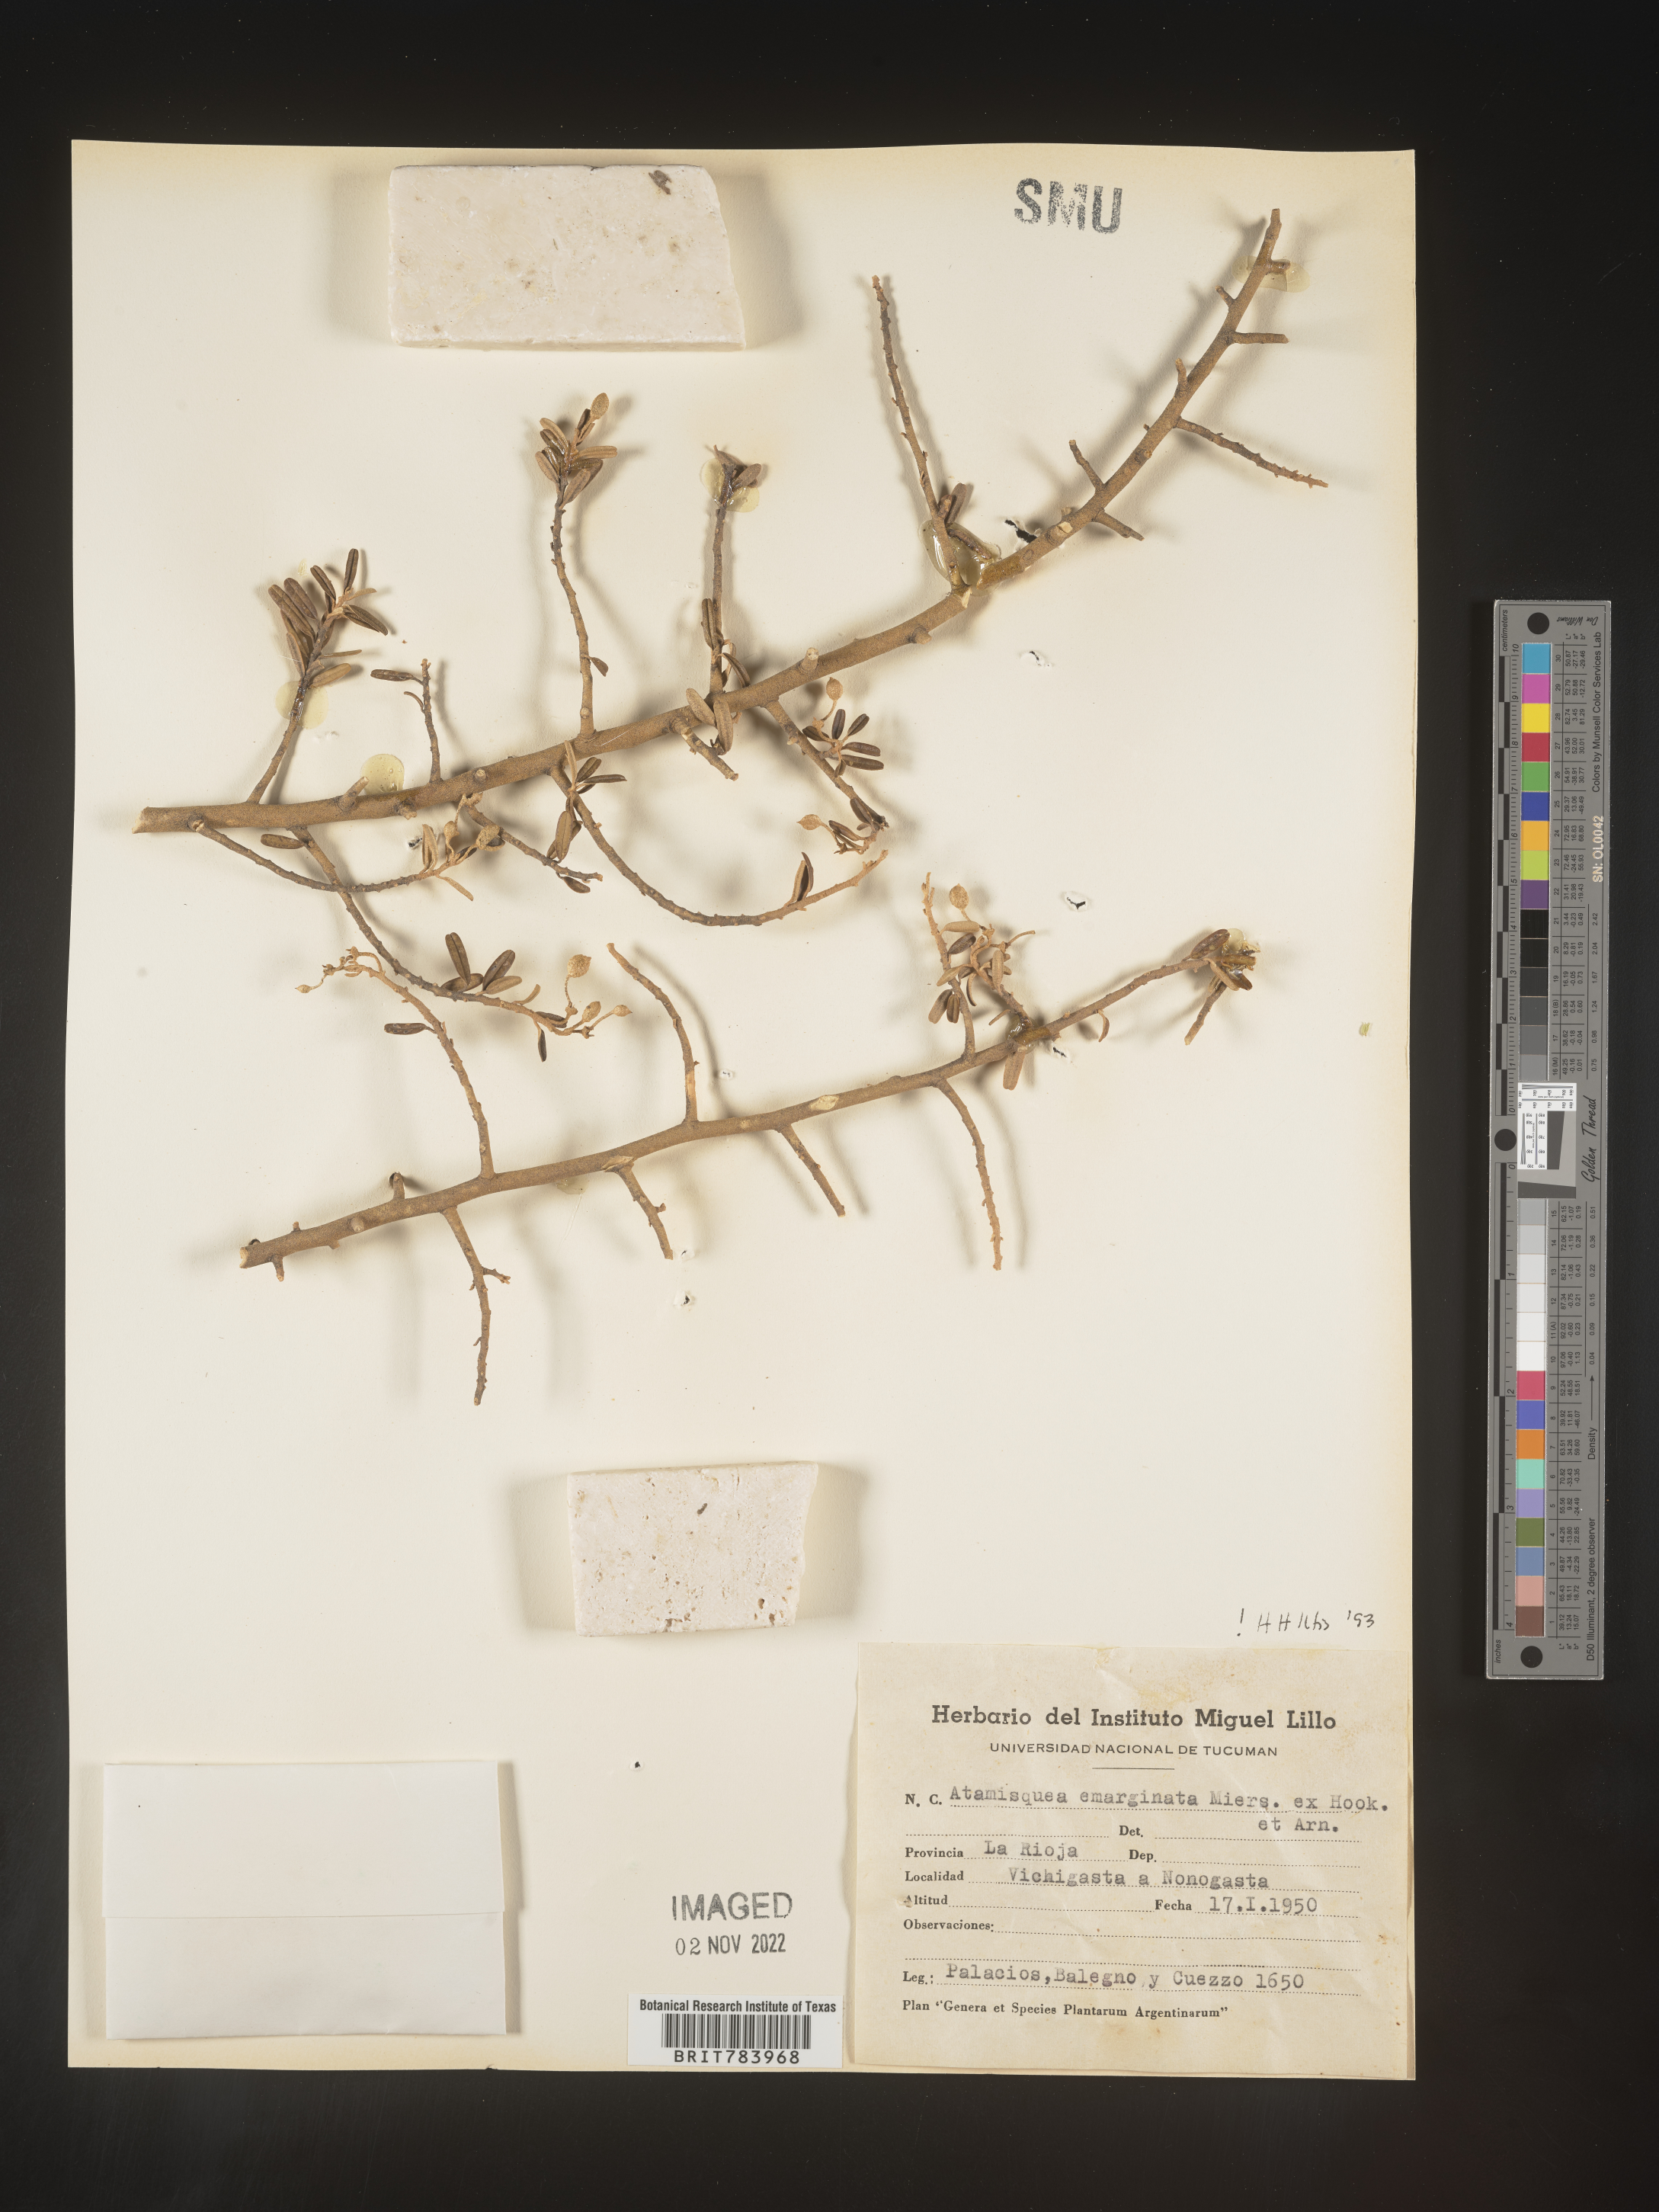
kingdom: Plantae
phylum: Tracheophyta
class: Magnoliopsida
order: Brassicales
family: Capparaceae
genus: Atamisquea
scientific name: Atamisquea
